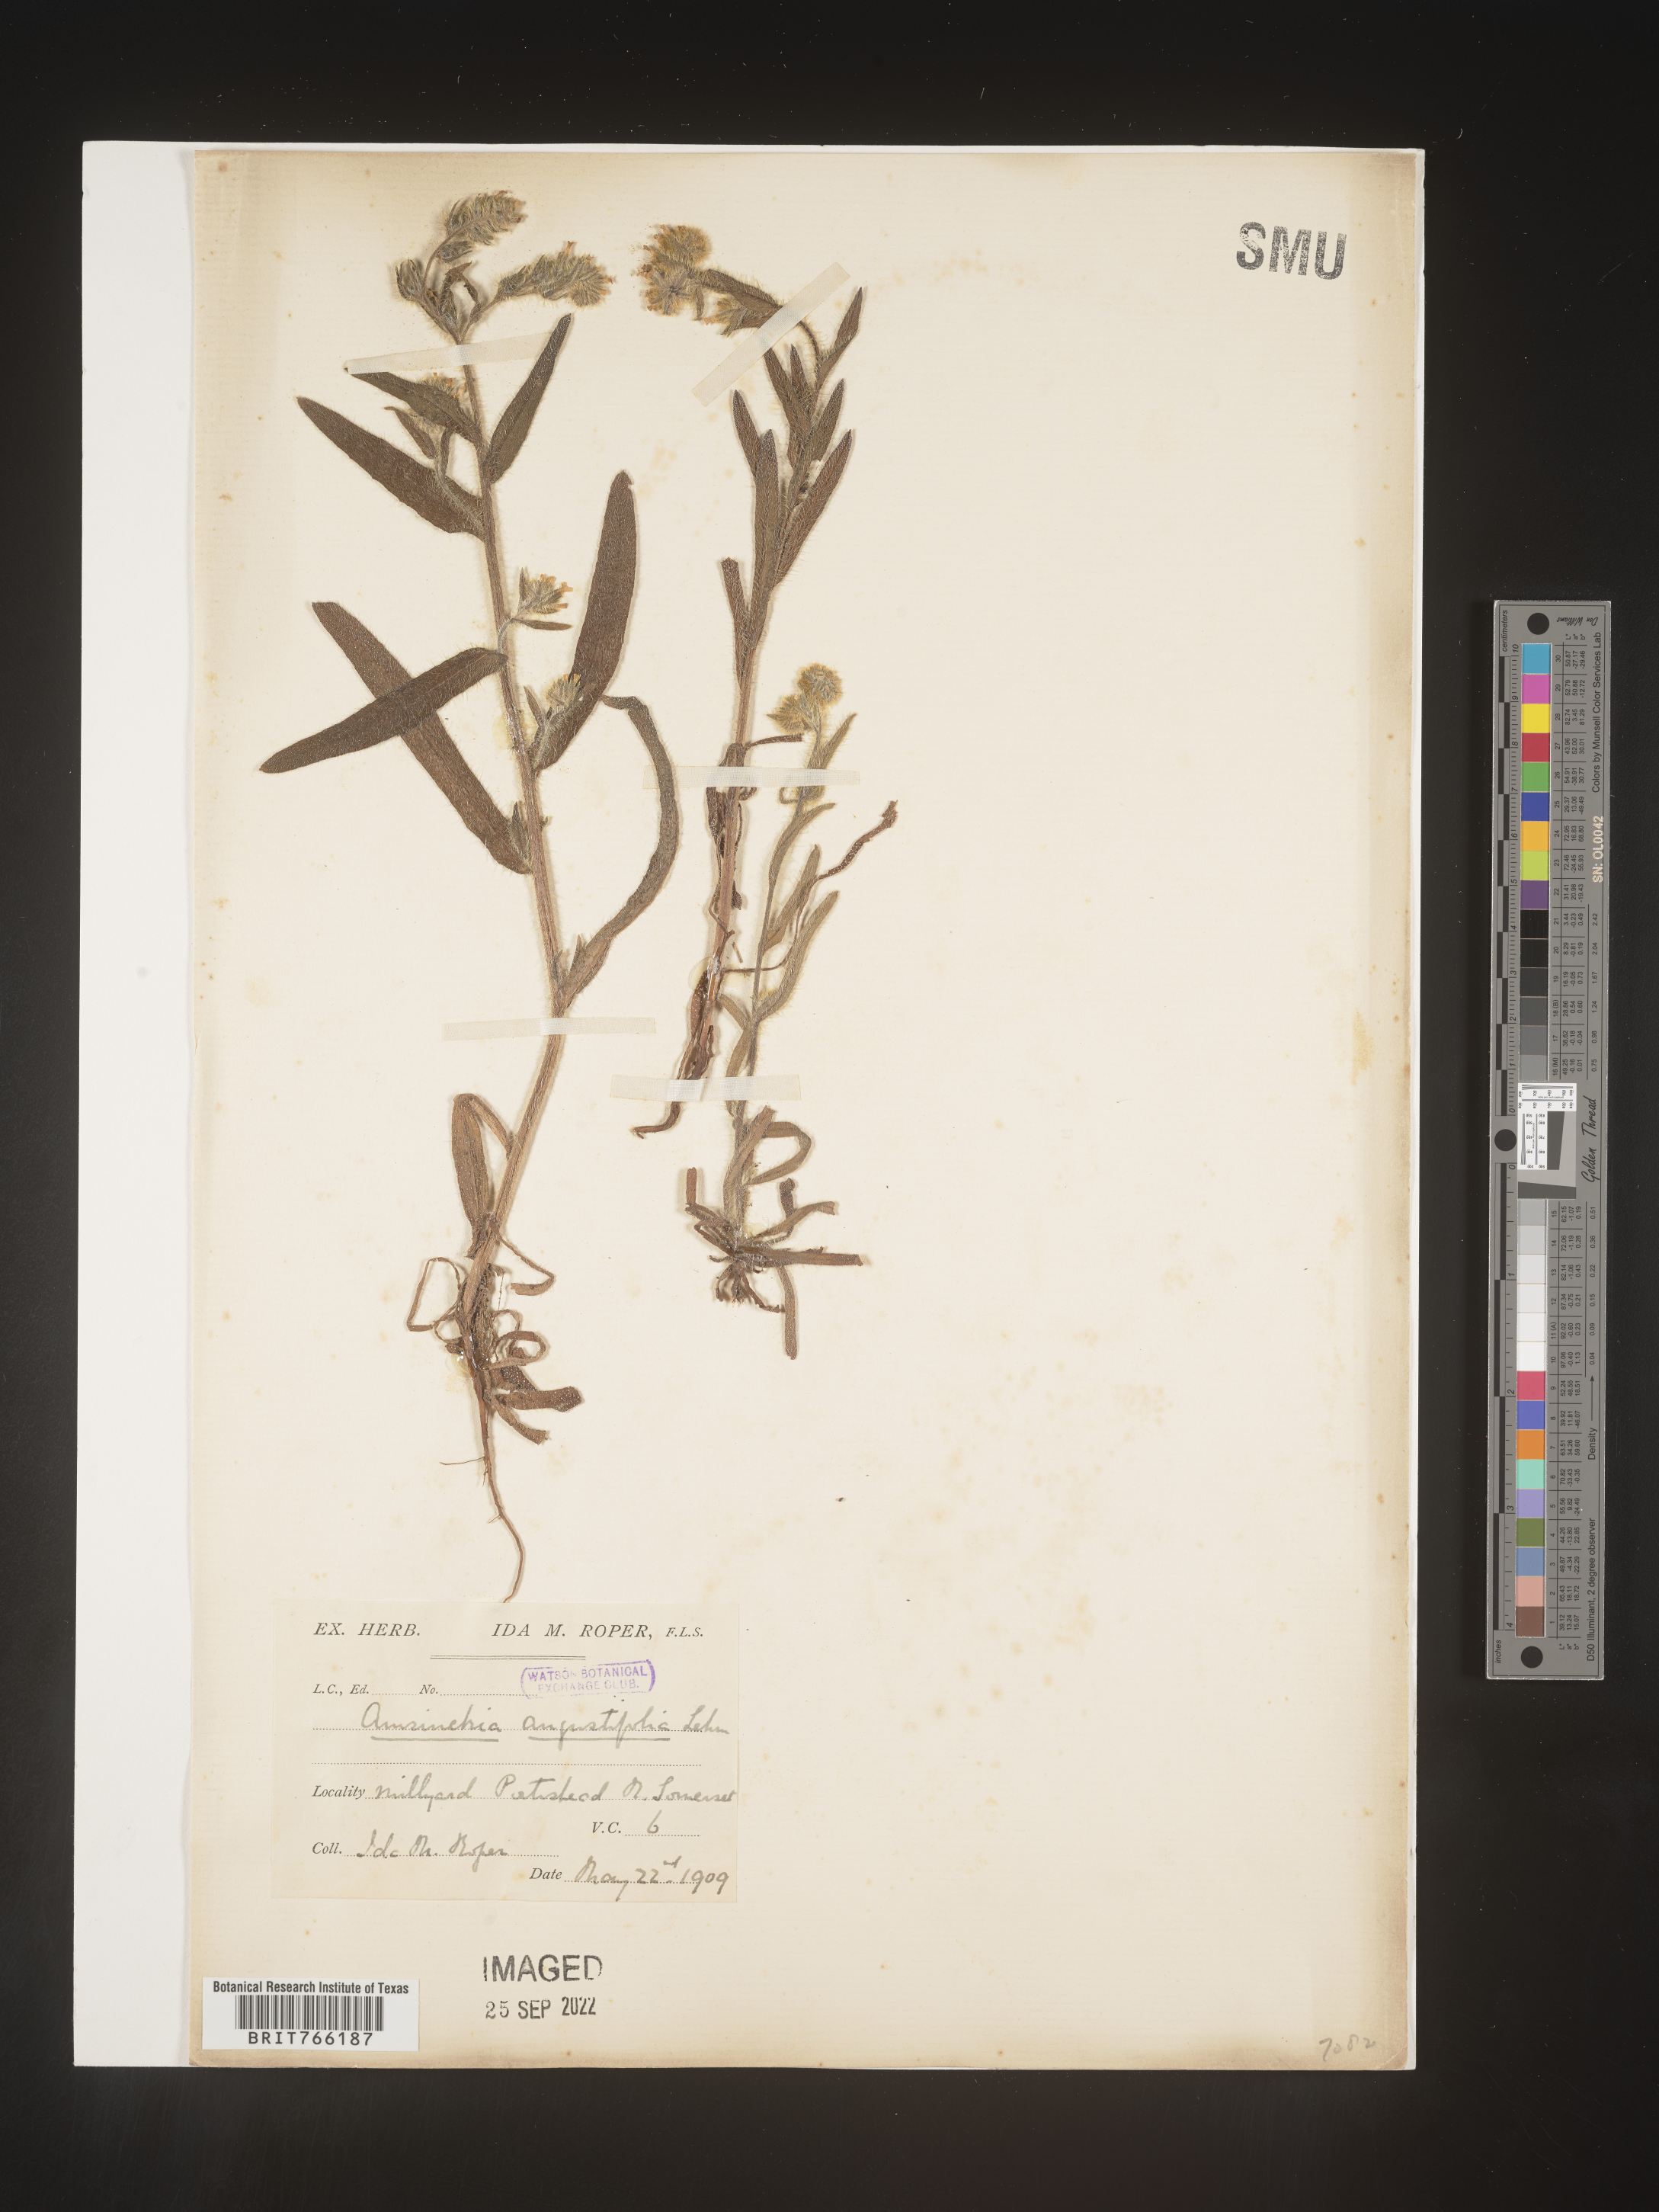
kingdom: Plantae
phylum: Tracheophyta
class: Magnoliopsida
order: Boraginales
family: Boraginaceae
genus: Amsinckia
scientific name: Amsinckia
